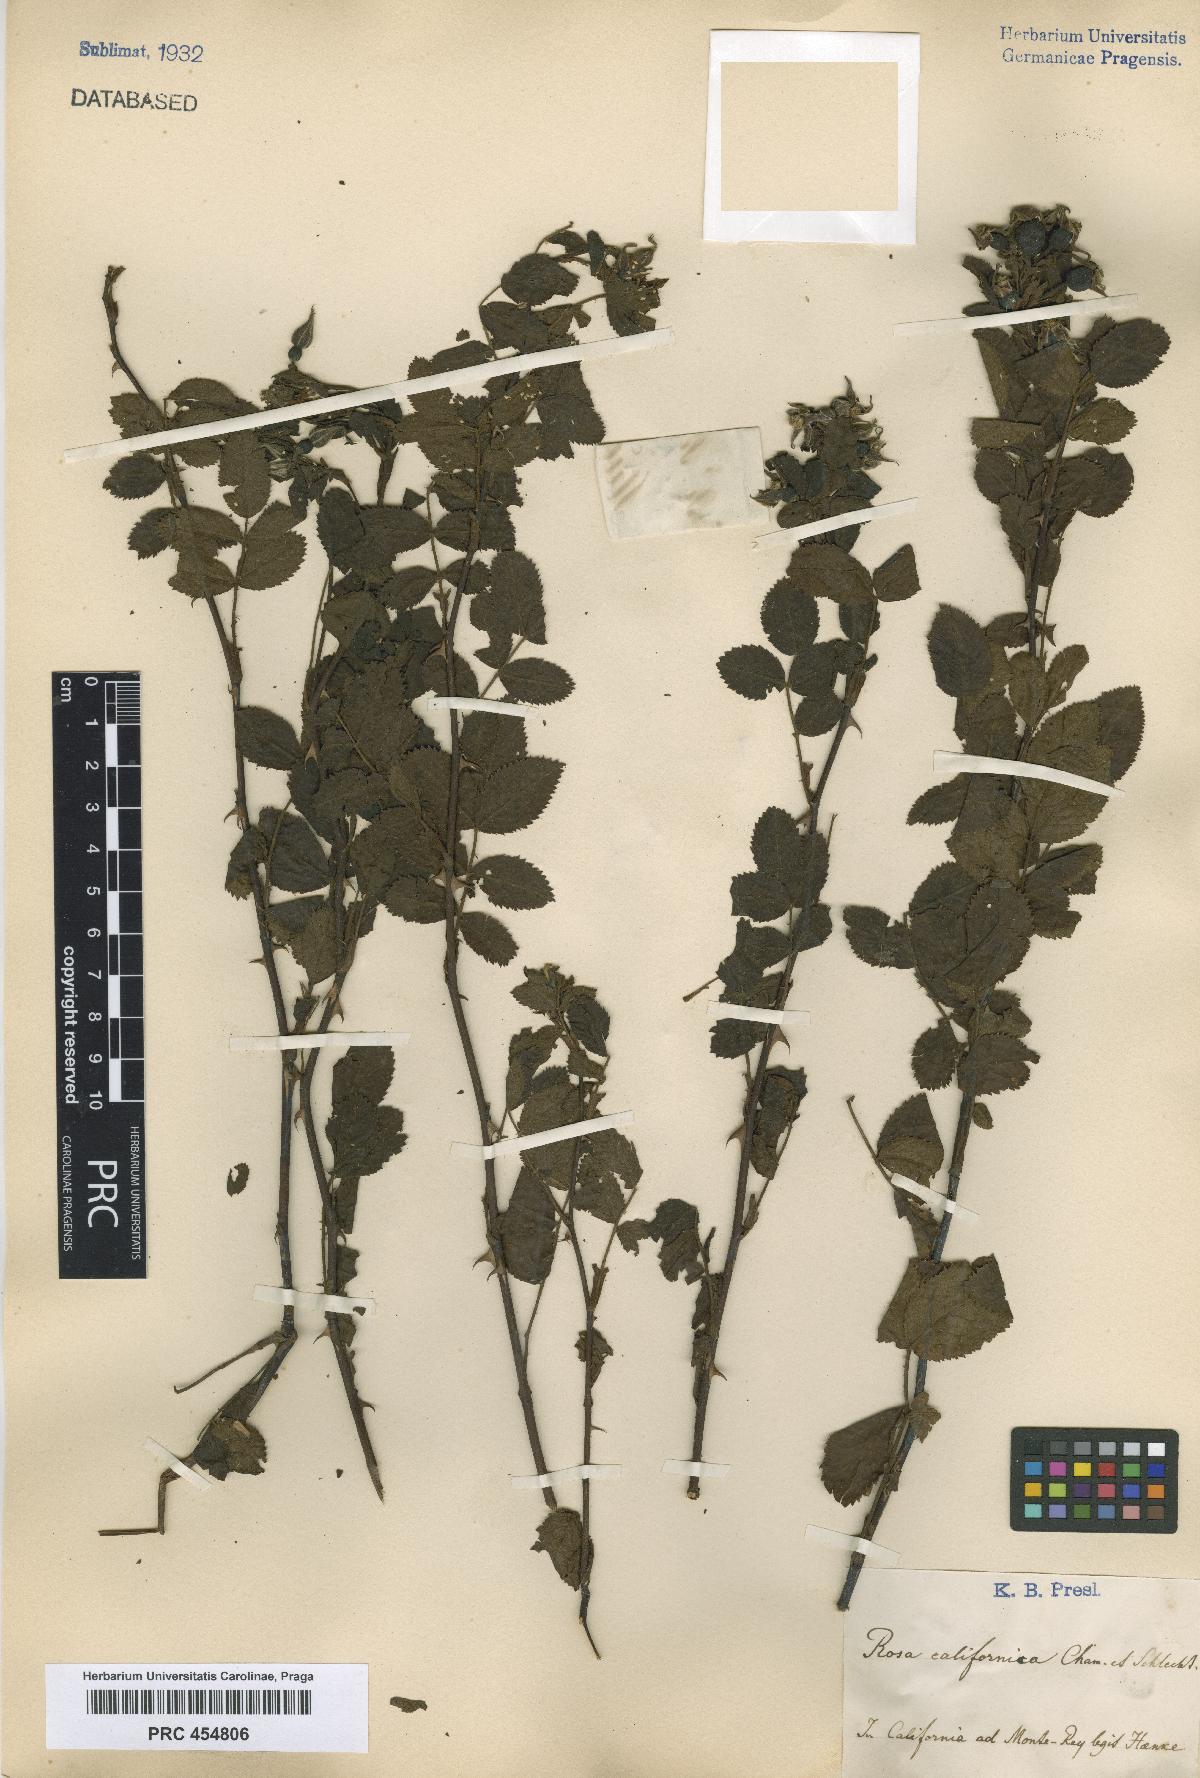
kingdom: Plantae
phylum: Tracheophyta
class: Magnoliopsida
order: Rosales
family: Rosaceae
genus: Rosa
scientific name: Rosa californica
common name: California rose
